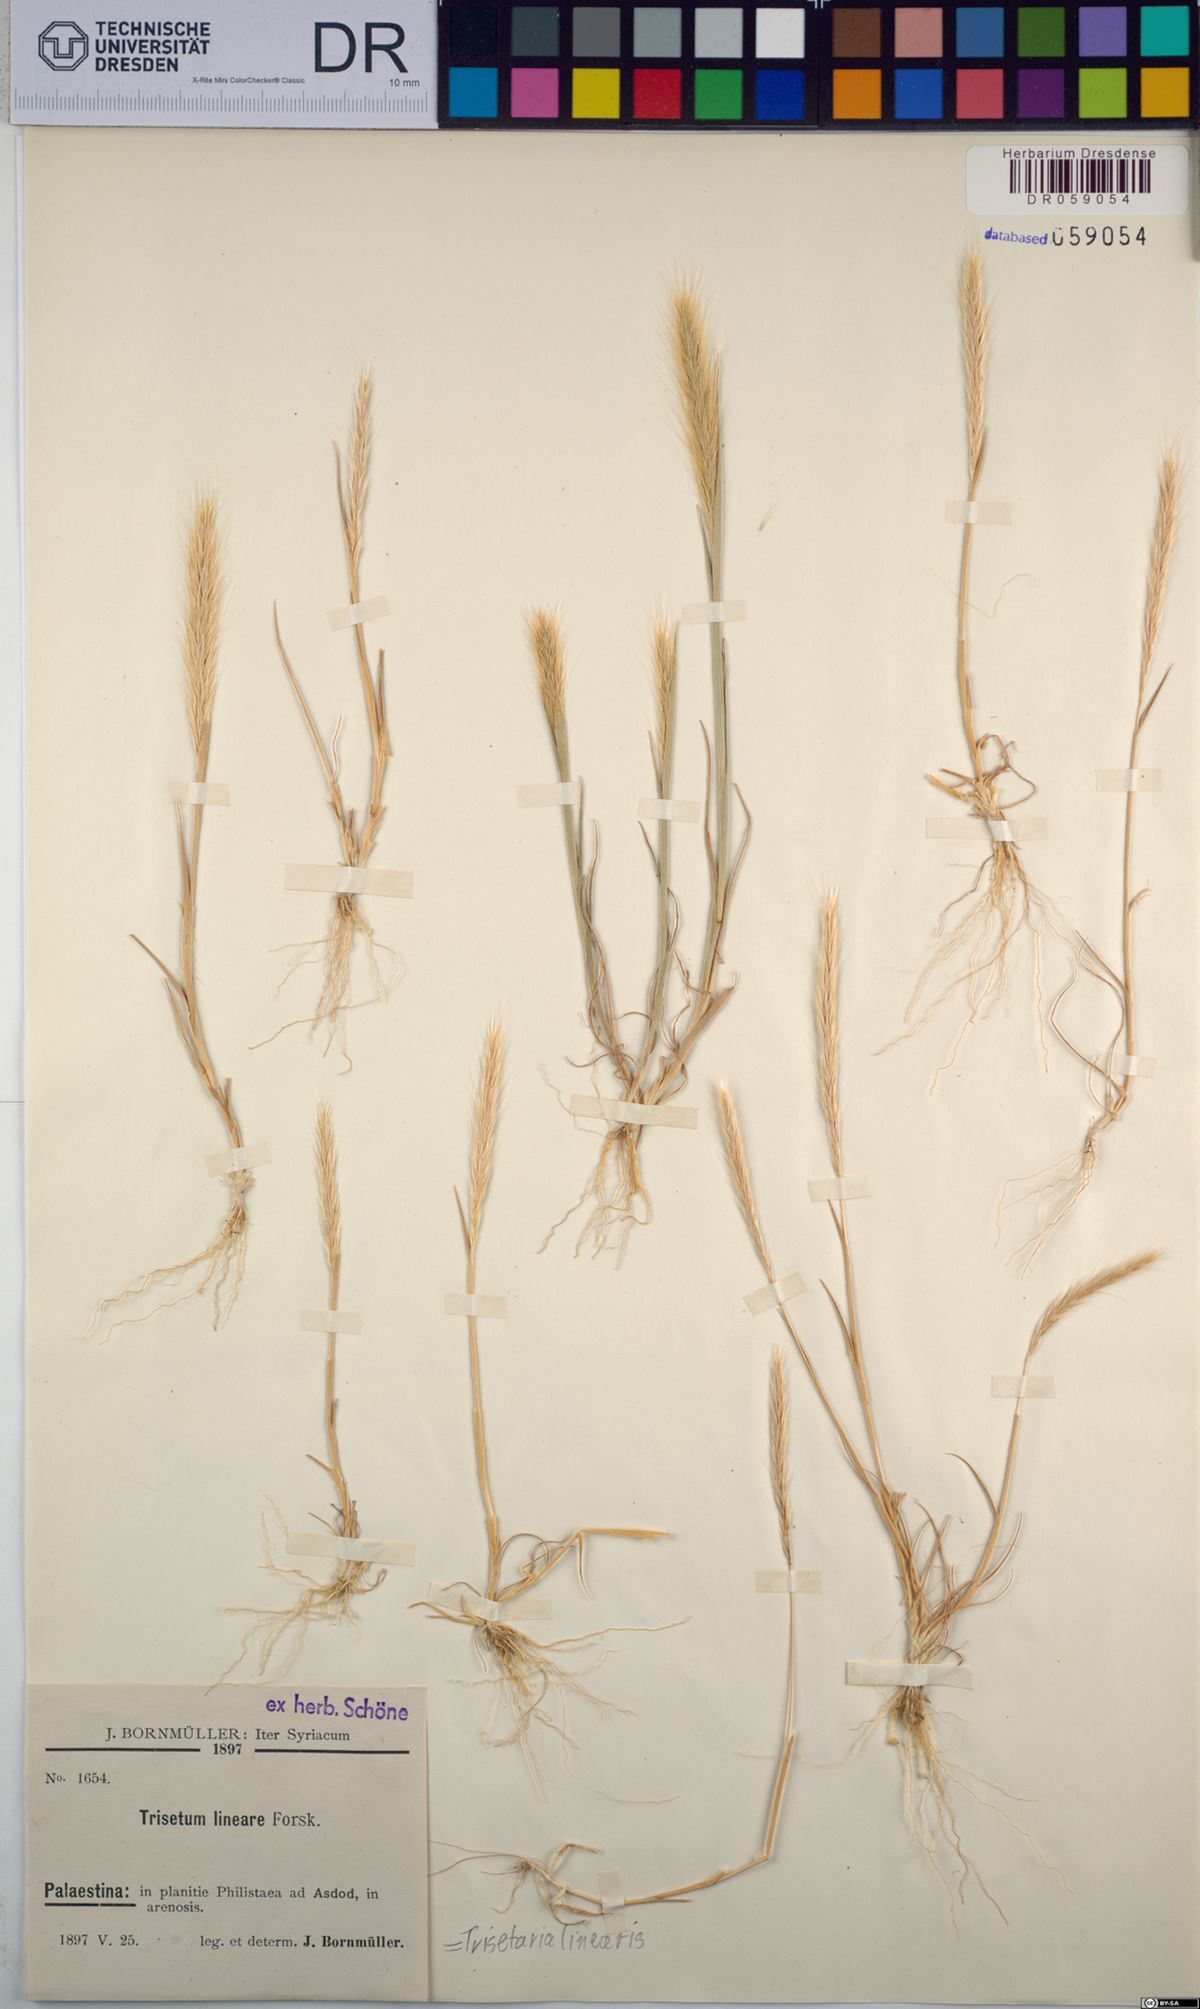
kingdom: Plantae
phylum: Tracheophyta
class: Liliopsida
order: Poales
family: Poaceae
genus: Trisetaria
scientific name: Trisetaria linearis
